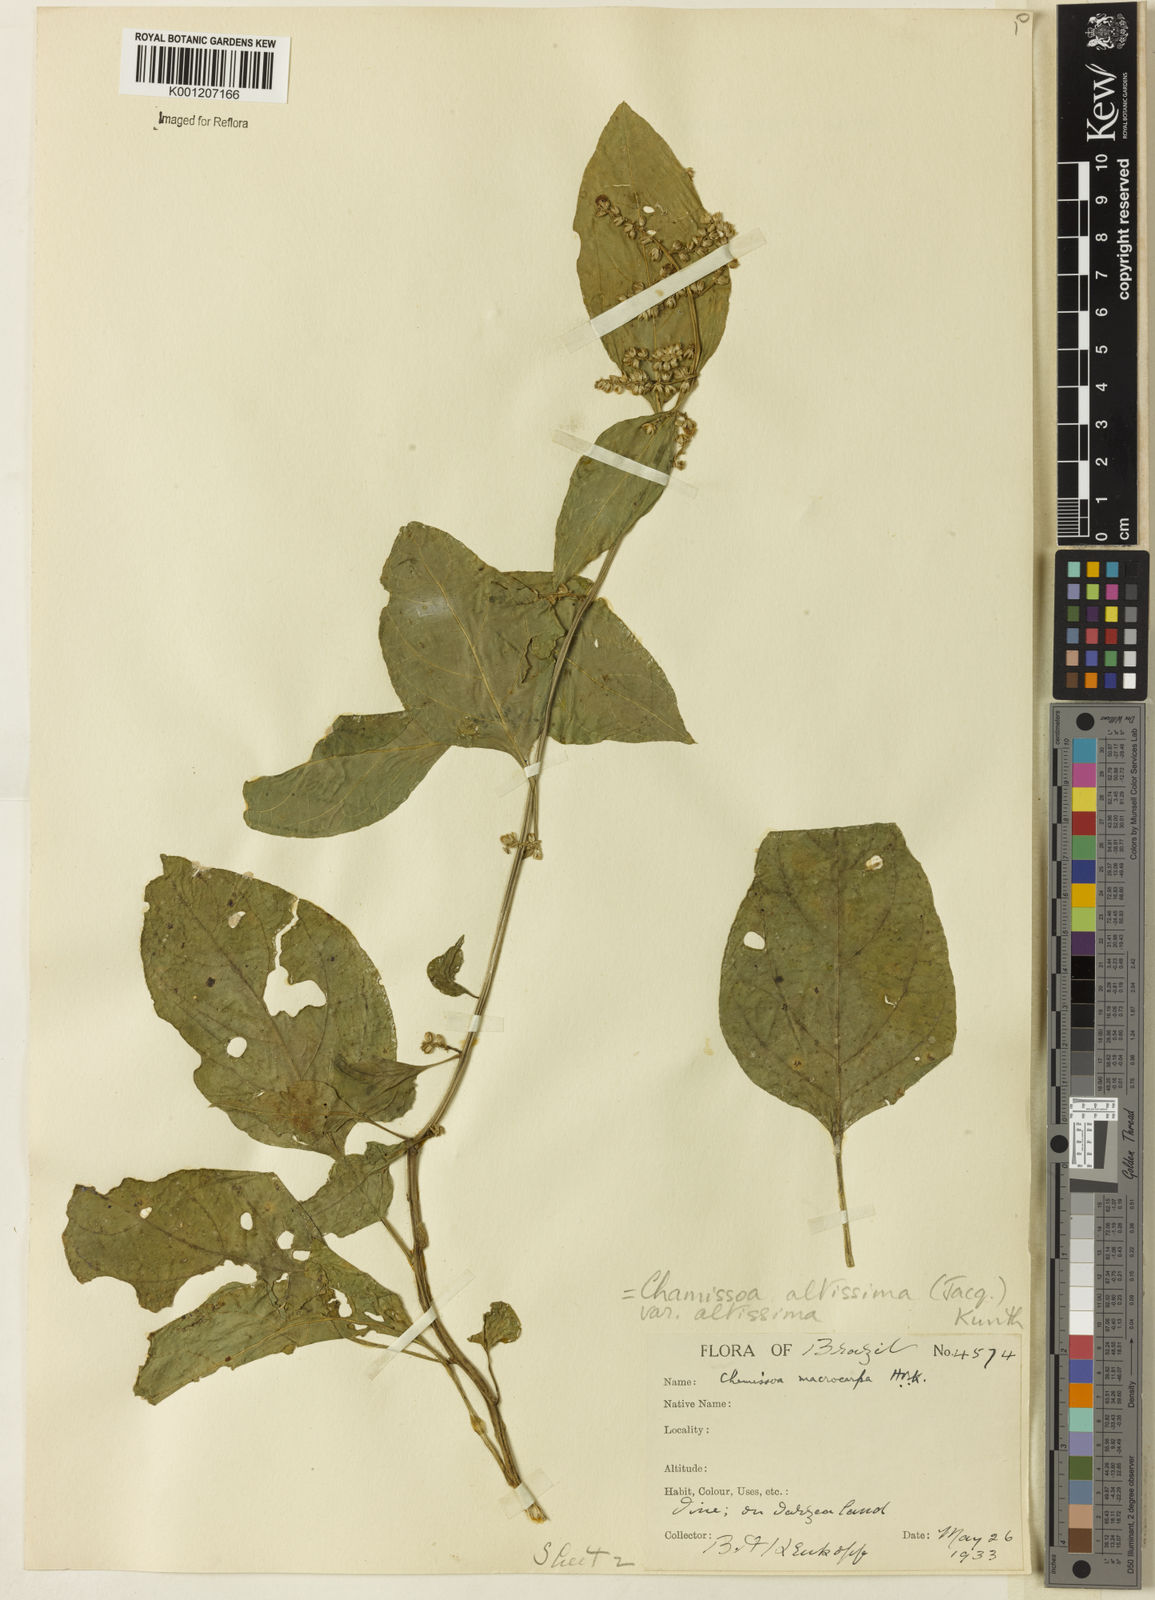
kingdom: Plantae
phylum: Tracheophyta
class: Magnoliopsida
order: Caryophyllales
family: Amaranthaceae
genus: Chamissoa
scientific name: Chamissoa altissima
